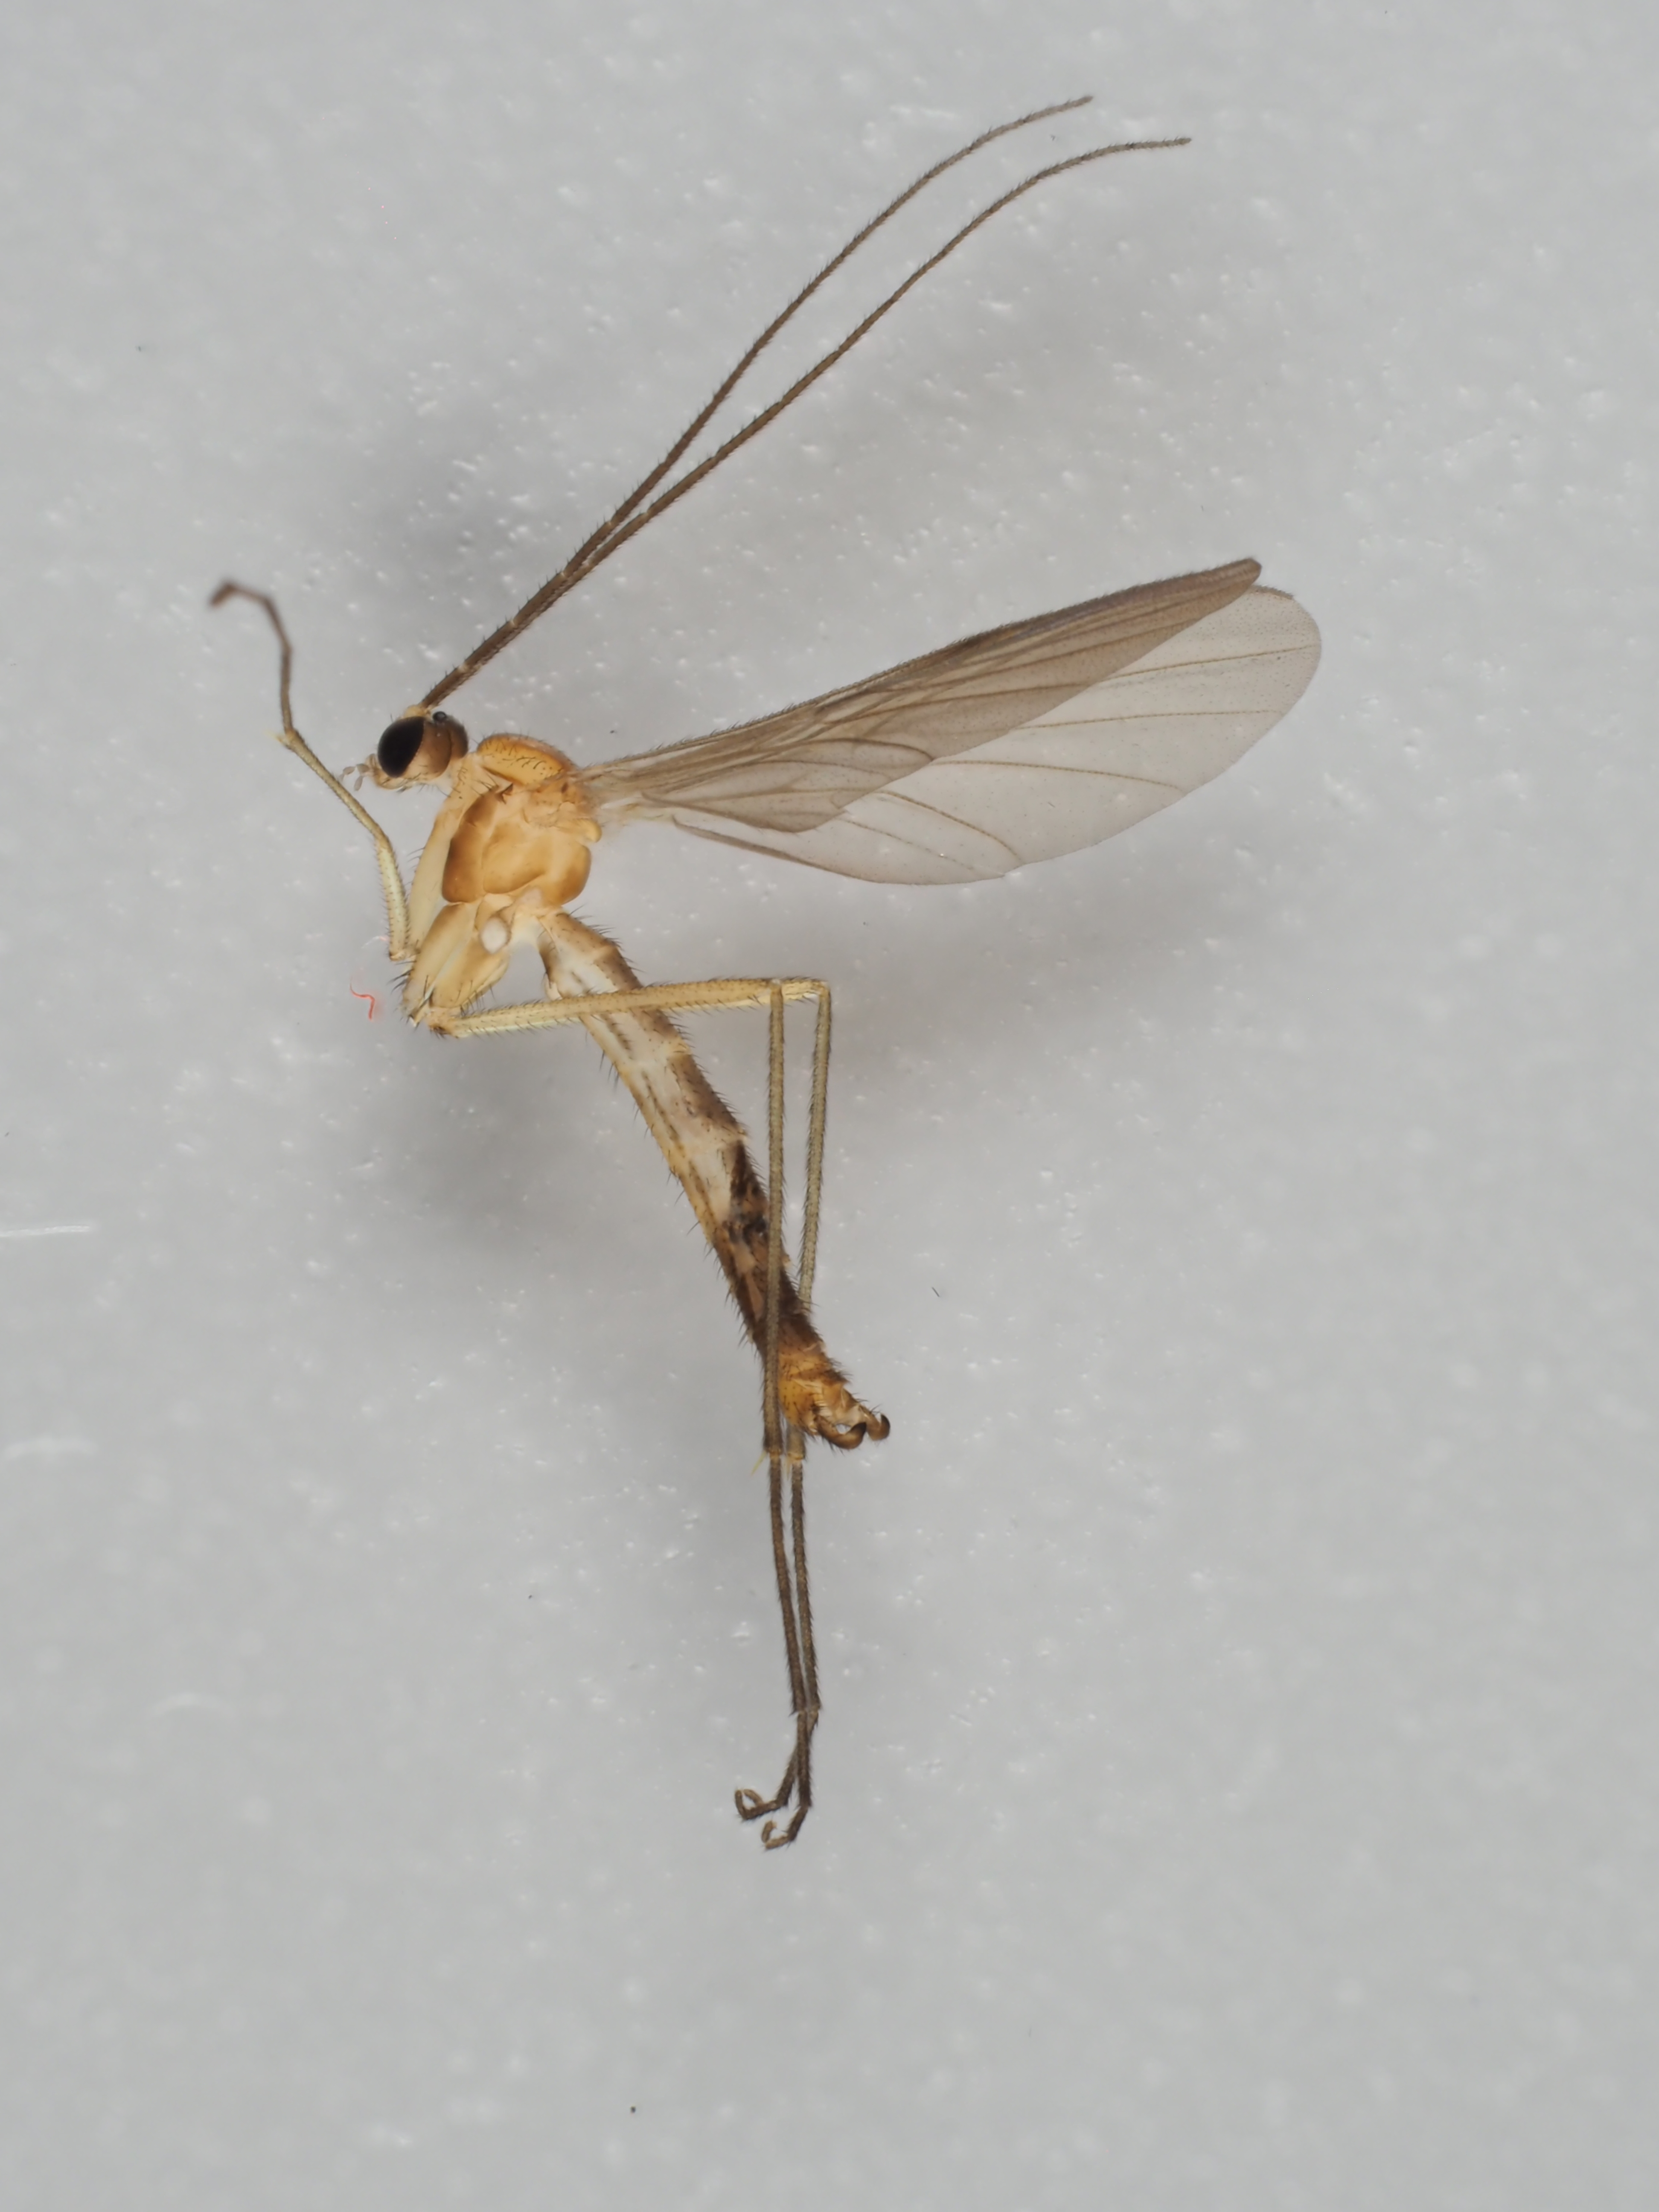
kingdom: Animalia
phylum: Arthropoda
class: Insecta
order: Diptera
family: Keroplatidae
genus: Macrocera
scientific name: Macrocera
